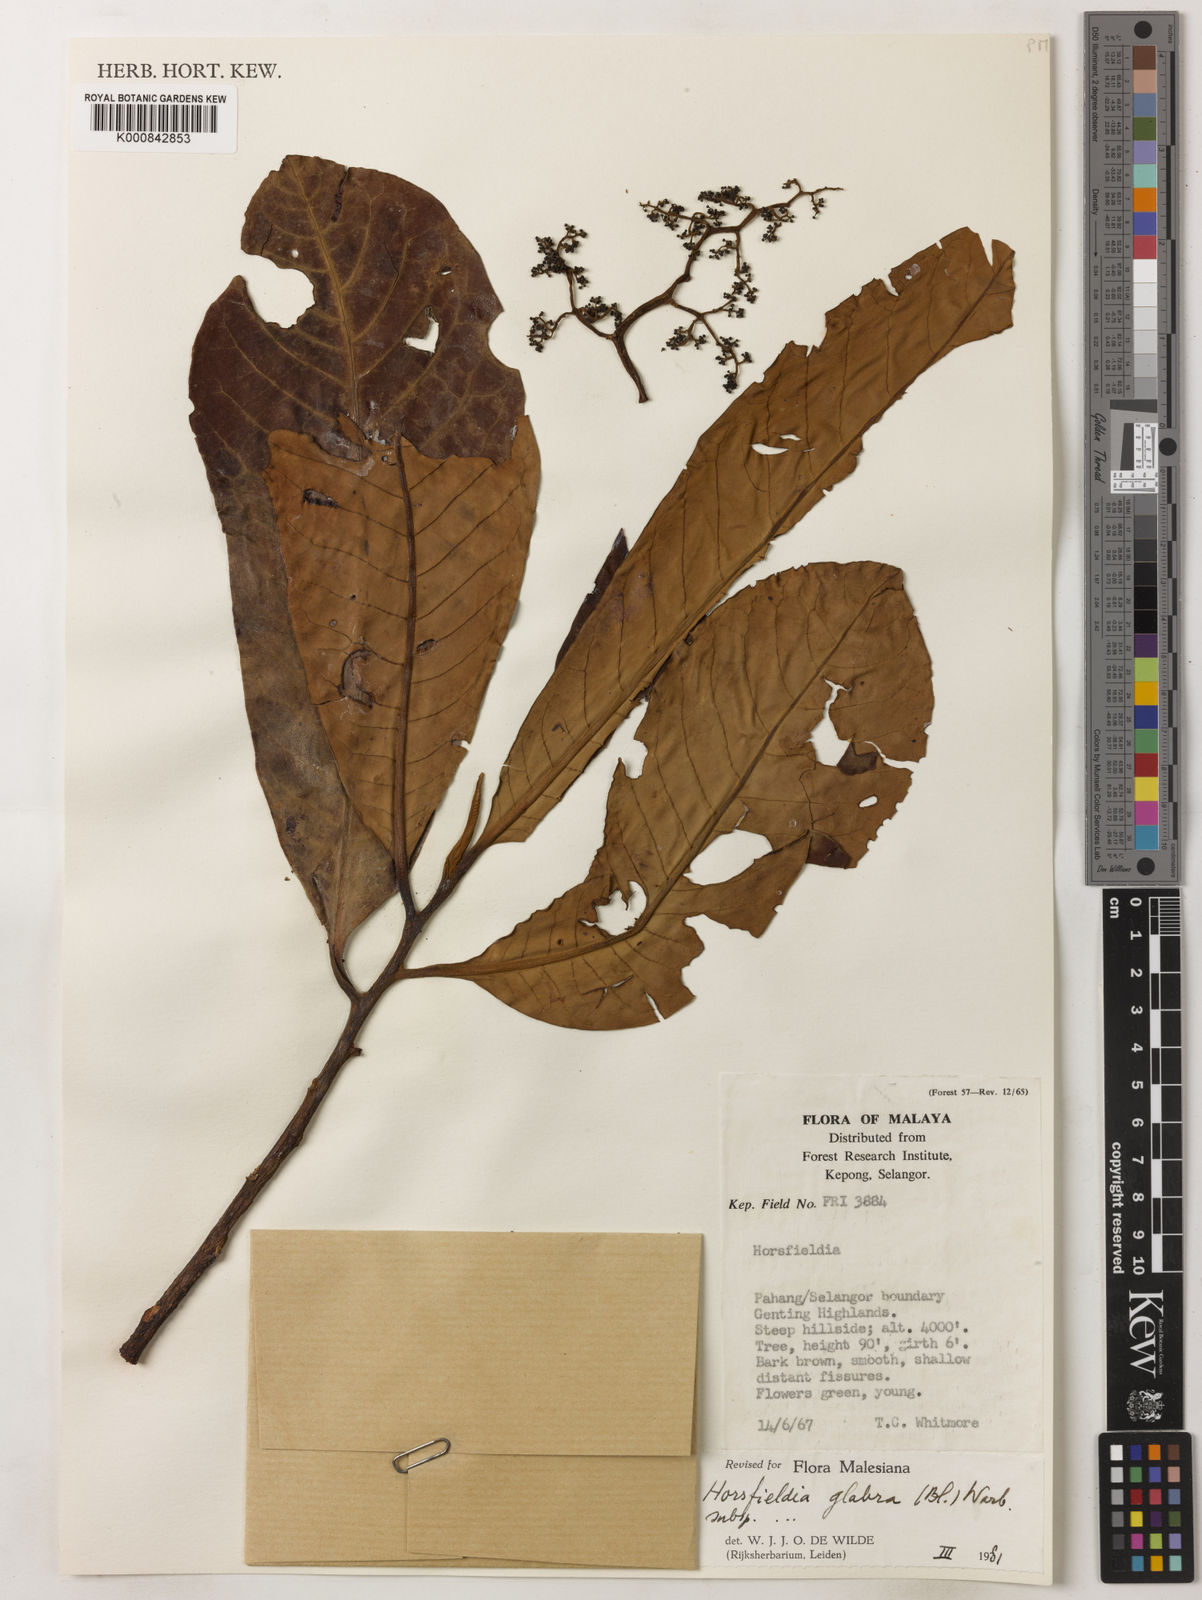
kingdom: Plantae
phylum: Tracheophyta
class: Magnoliopsida
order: Magnoliales
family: Myristicaceae
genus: Horsfieldia
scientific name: Horsfieldia
